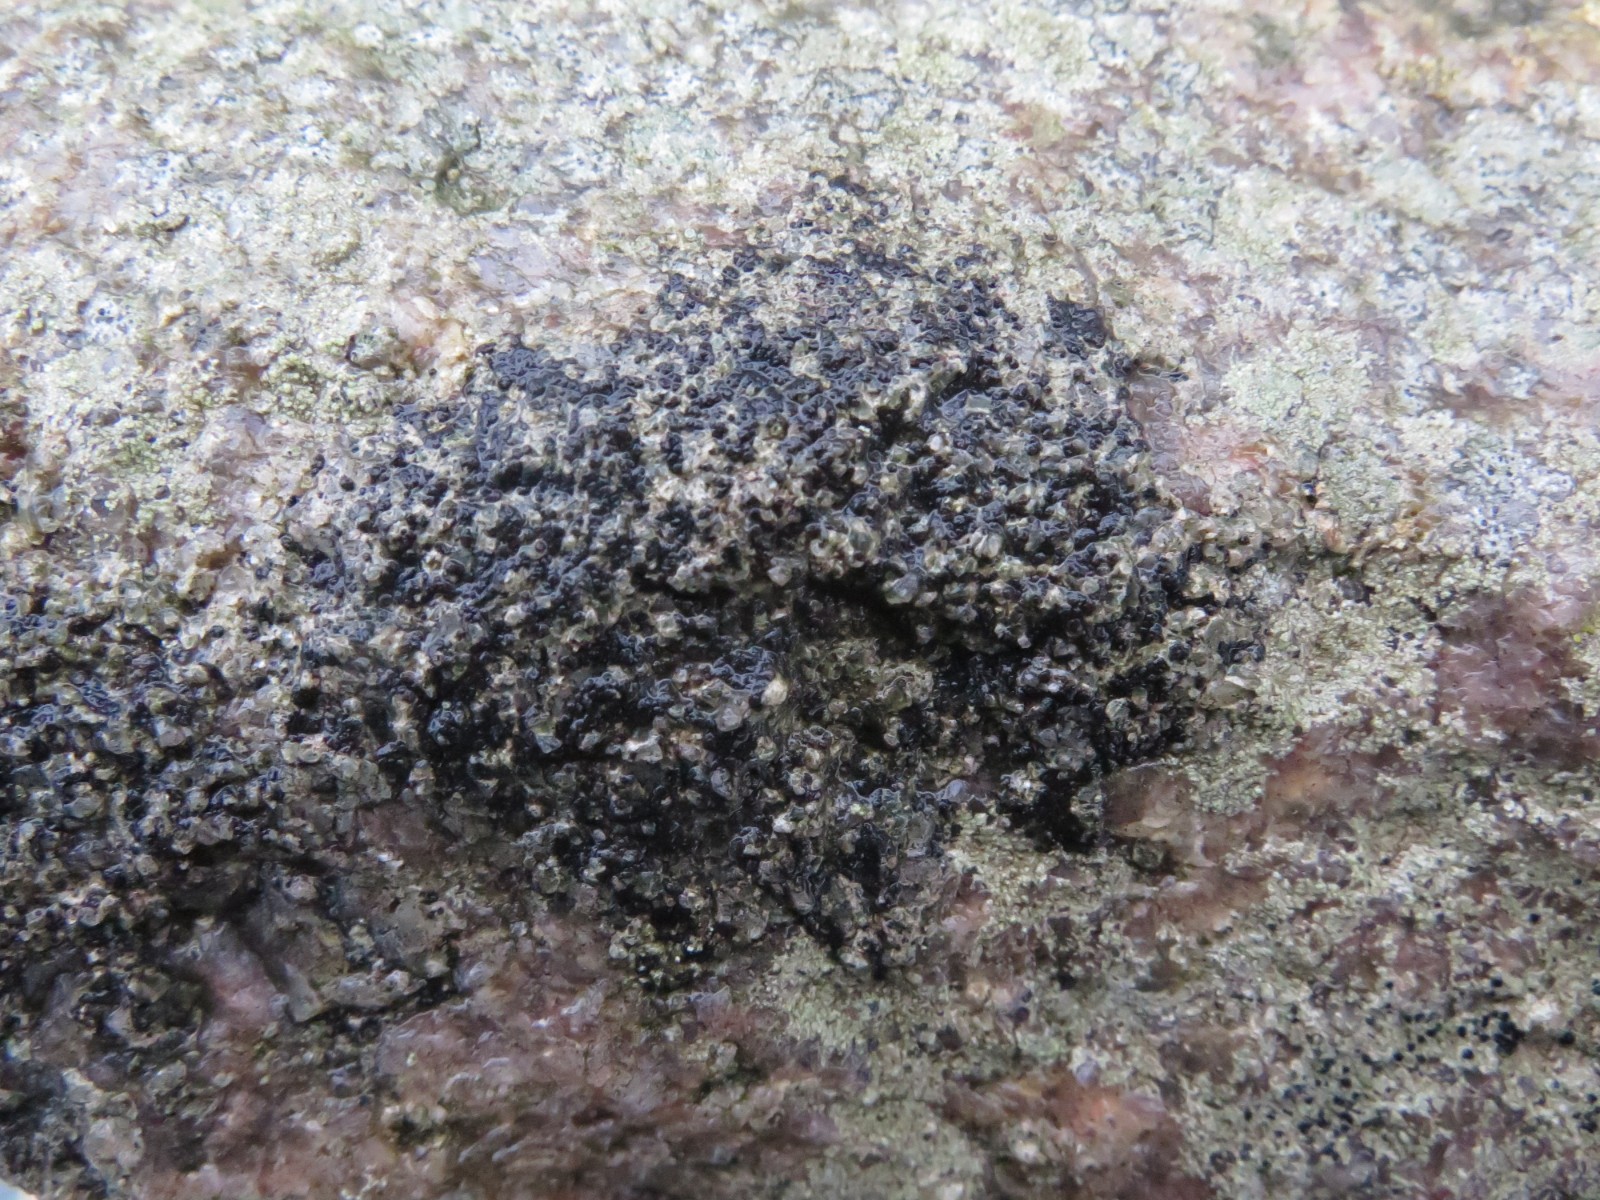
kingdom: Fungi
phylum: Ascomycota
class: Lecanoromycetes
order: Acarosporales
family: Acarosporaceae
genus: Acarospora
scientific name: Acarospora privigna
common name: sort foldekantlav
